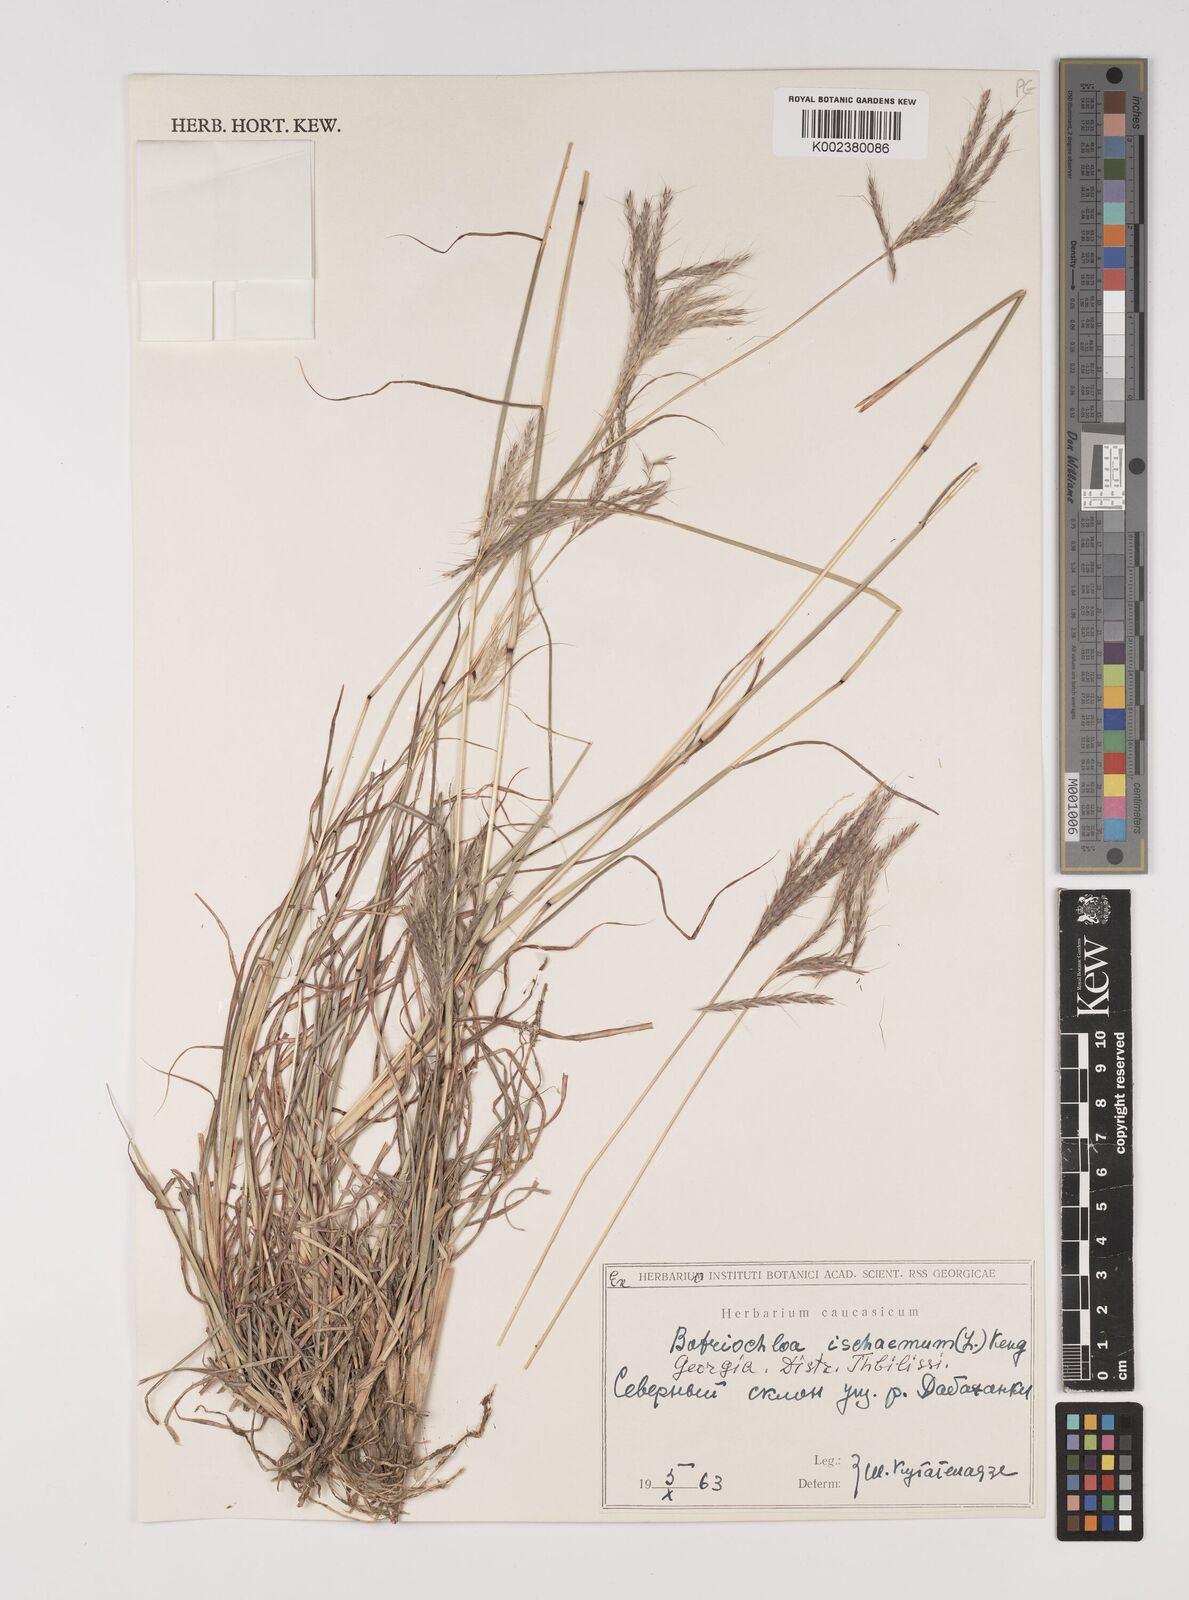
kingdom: Plantae
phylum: Tracheophyta
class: Liliopsida
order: Poales
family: Poaceae
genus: Bothriochloa
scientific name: Bothriochloa ischaemum
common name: Yellow bluestem
